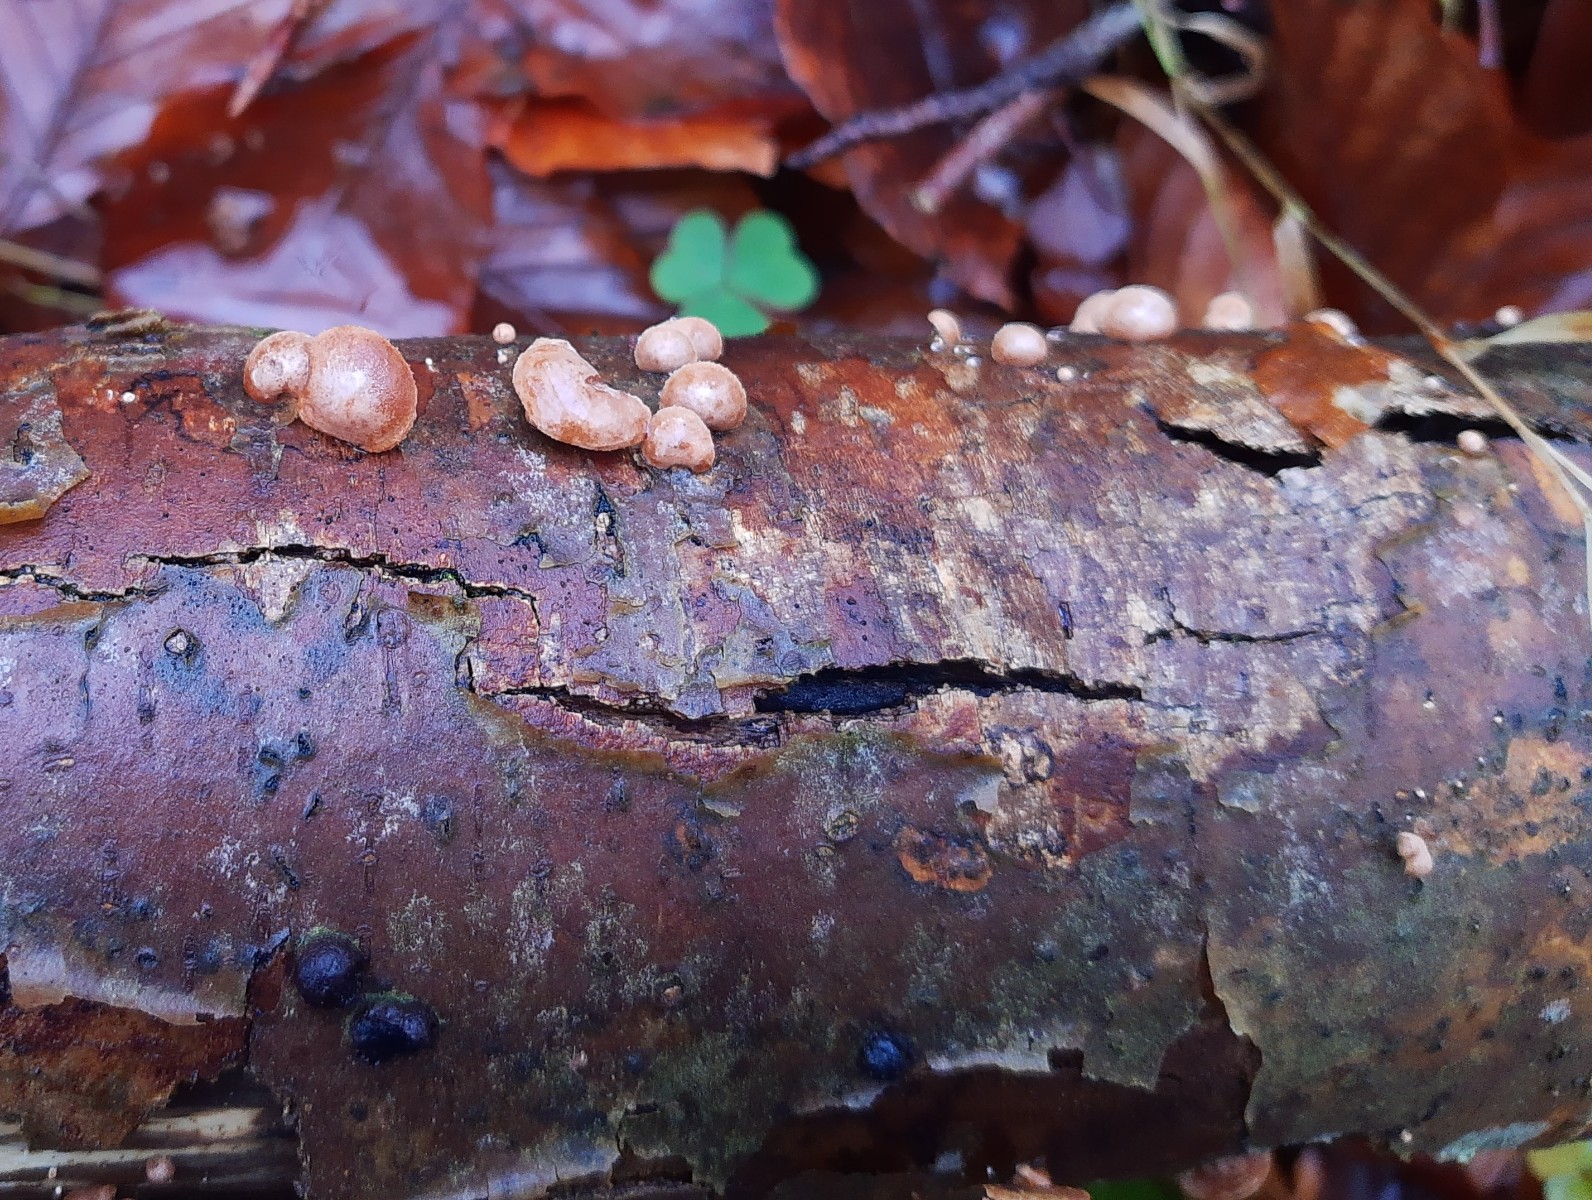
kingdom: Fungi
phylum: Basidiomycota
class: Agaricomycetes
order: Agaricales
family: Strophariaceae
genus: Deconica
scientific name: Deconica horizontalis
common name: ved-stråhat
